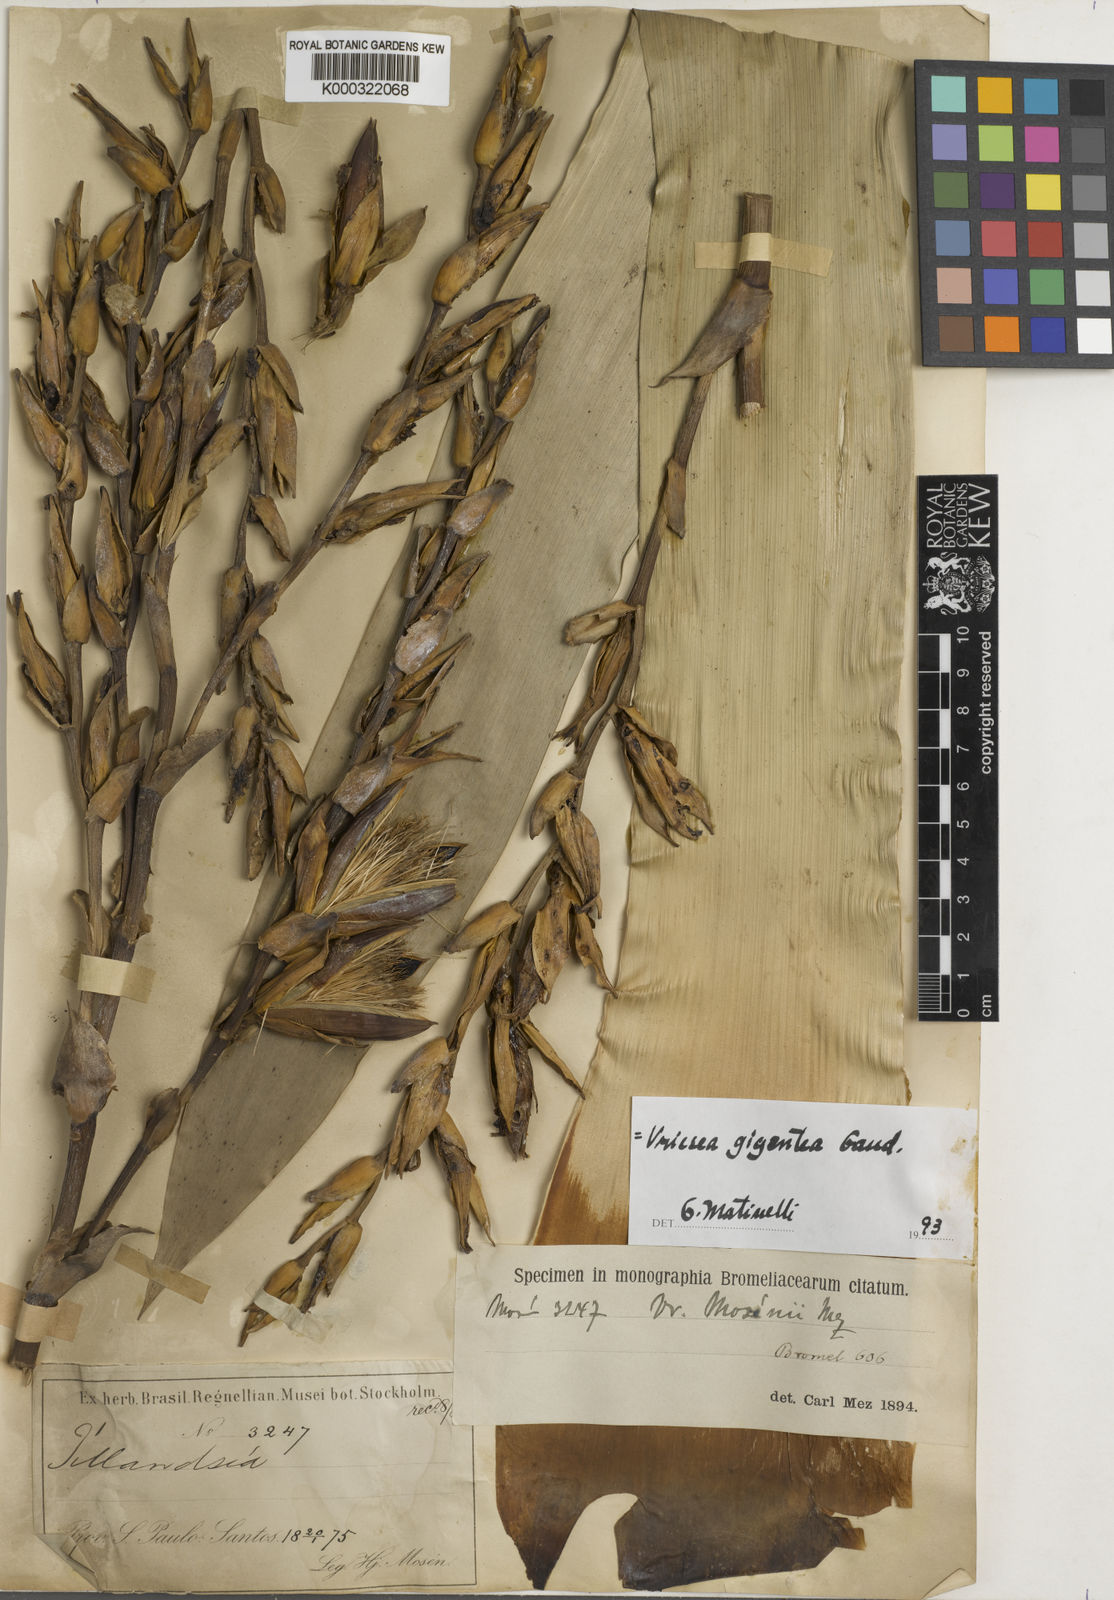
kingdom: Plantae
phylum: Tracheophyta
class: Liliopsida
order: Poales
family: Bromeliaceae
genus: Vriesea
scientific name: Vriesea gigantea
